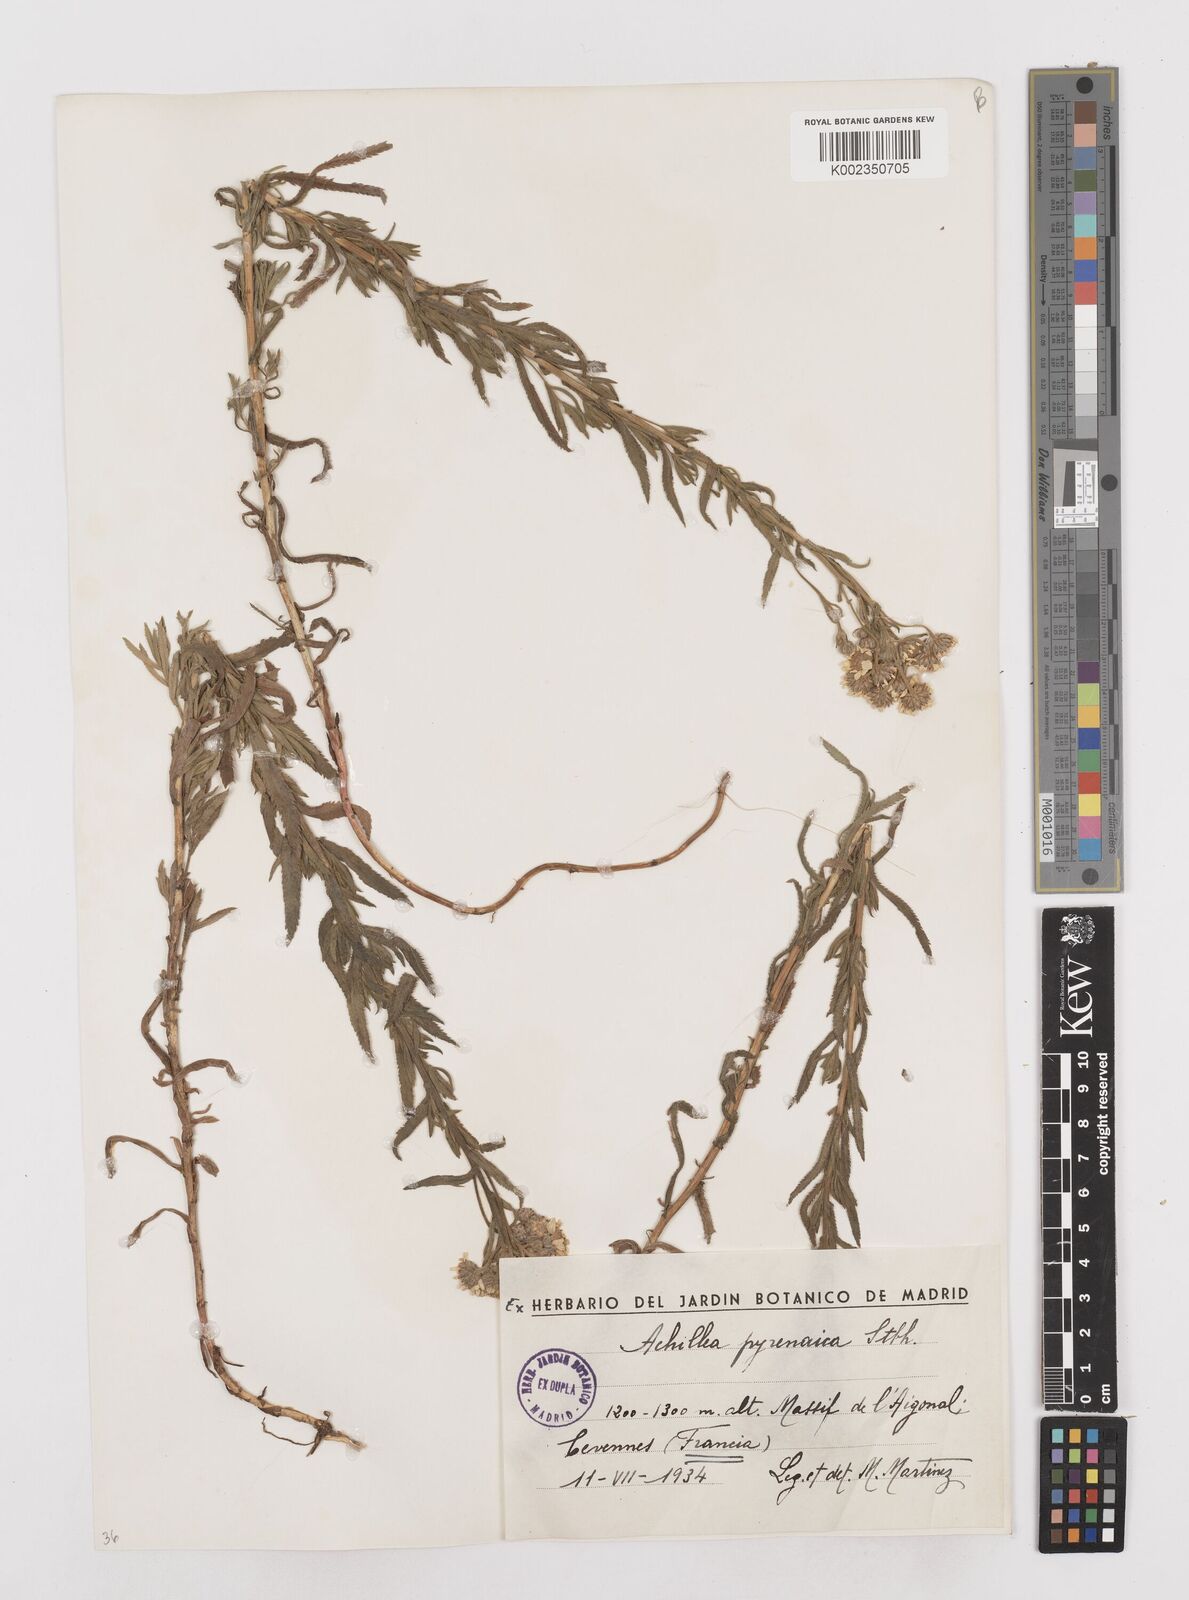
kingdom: Plantae
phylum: Tracheophyta
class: Magnoliopsida
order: Asterales
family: Asteraceae
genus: Achillea
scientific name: Achillea pyrenaica
